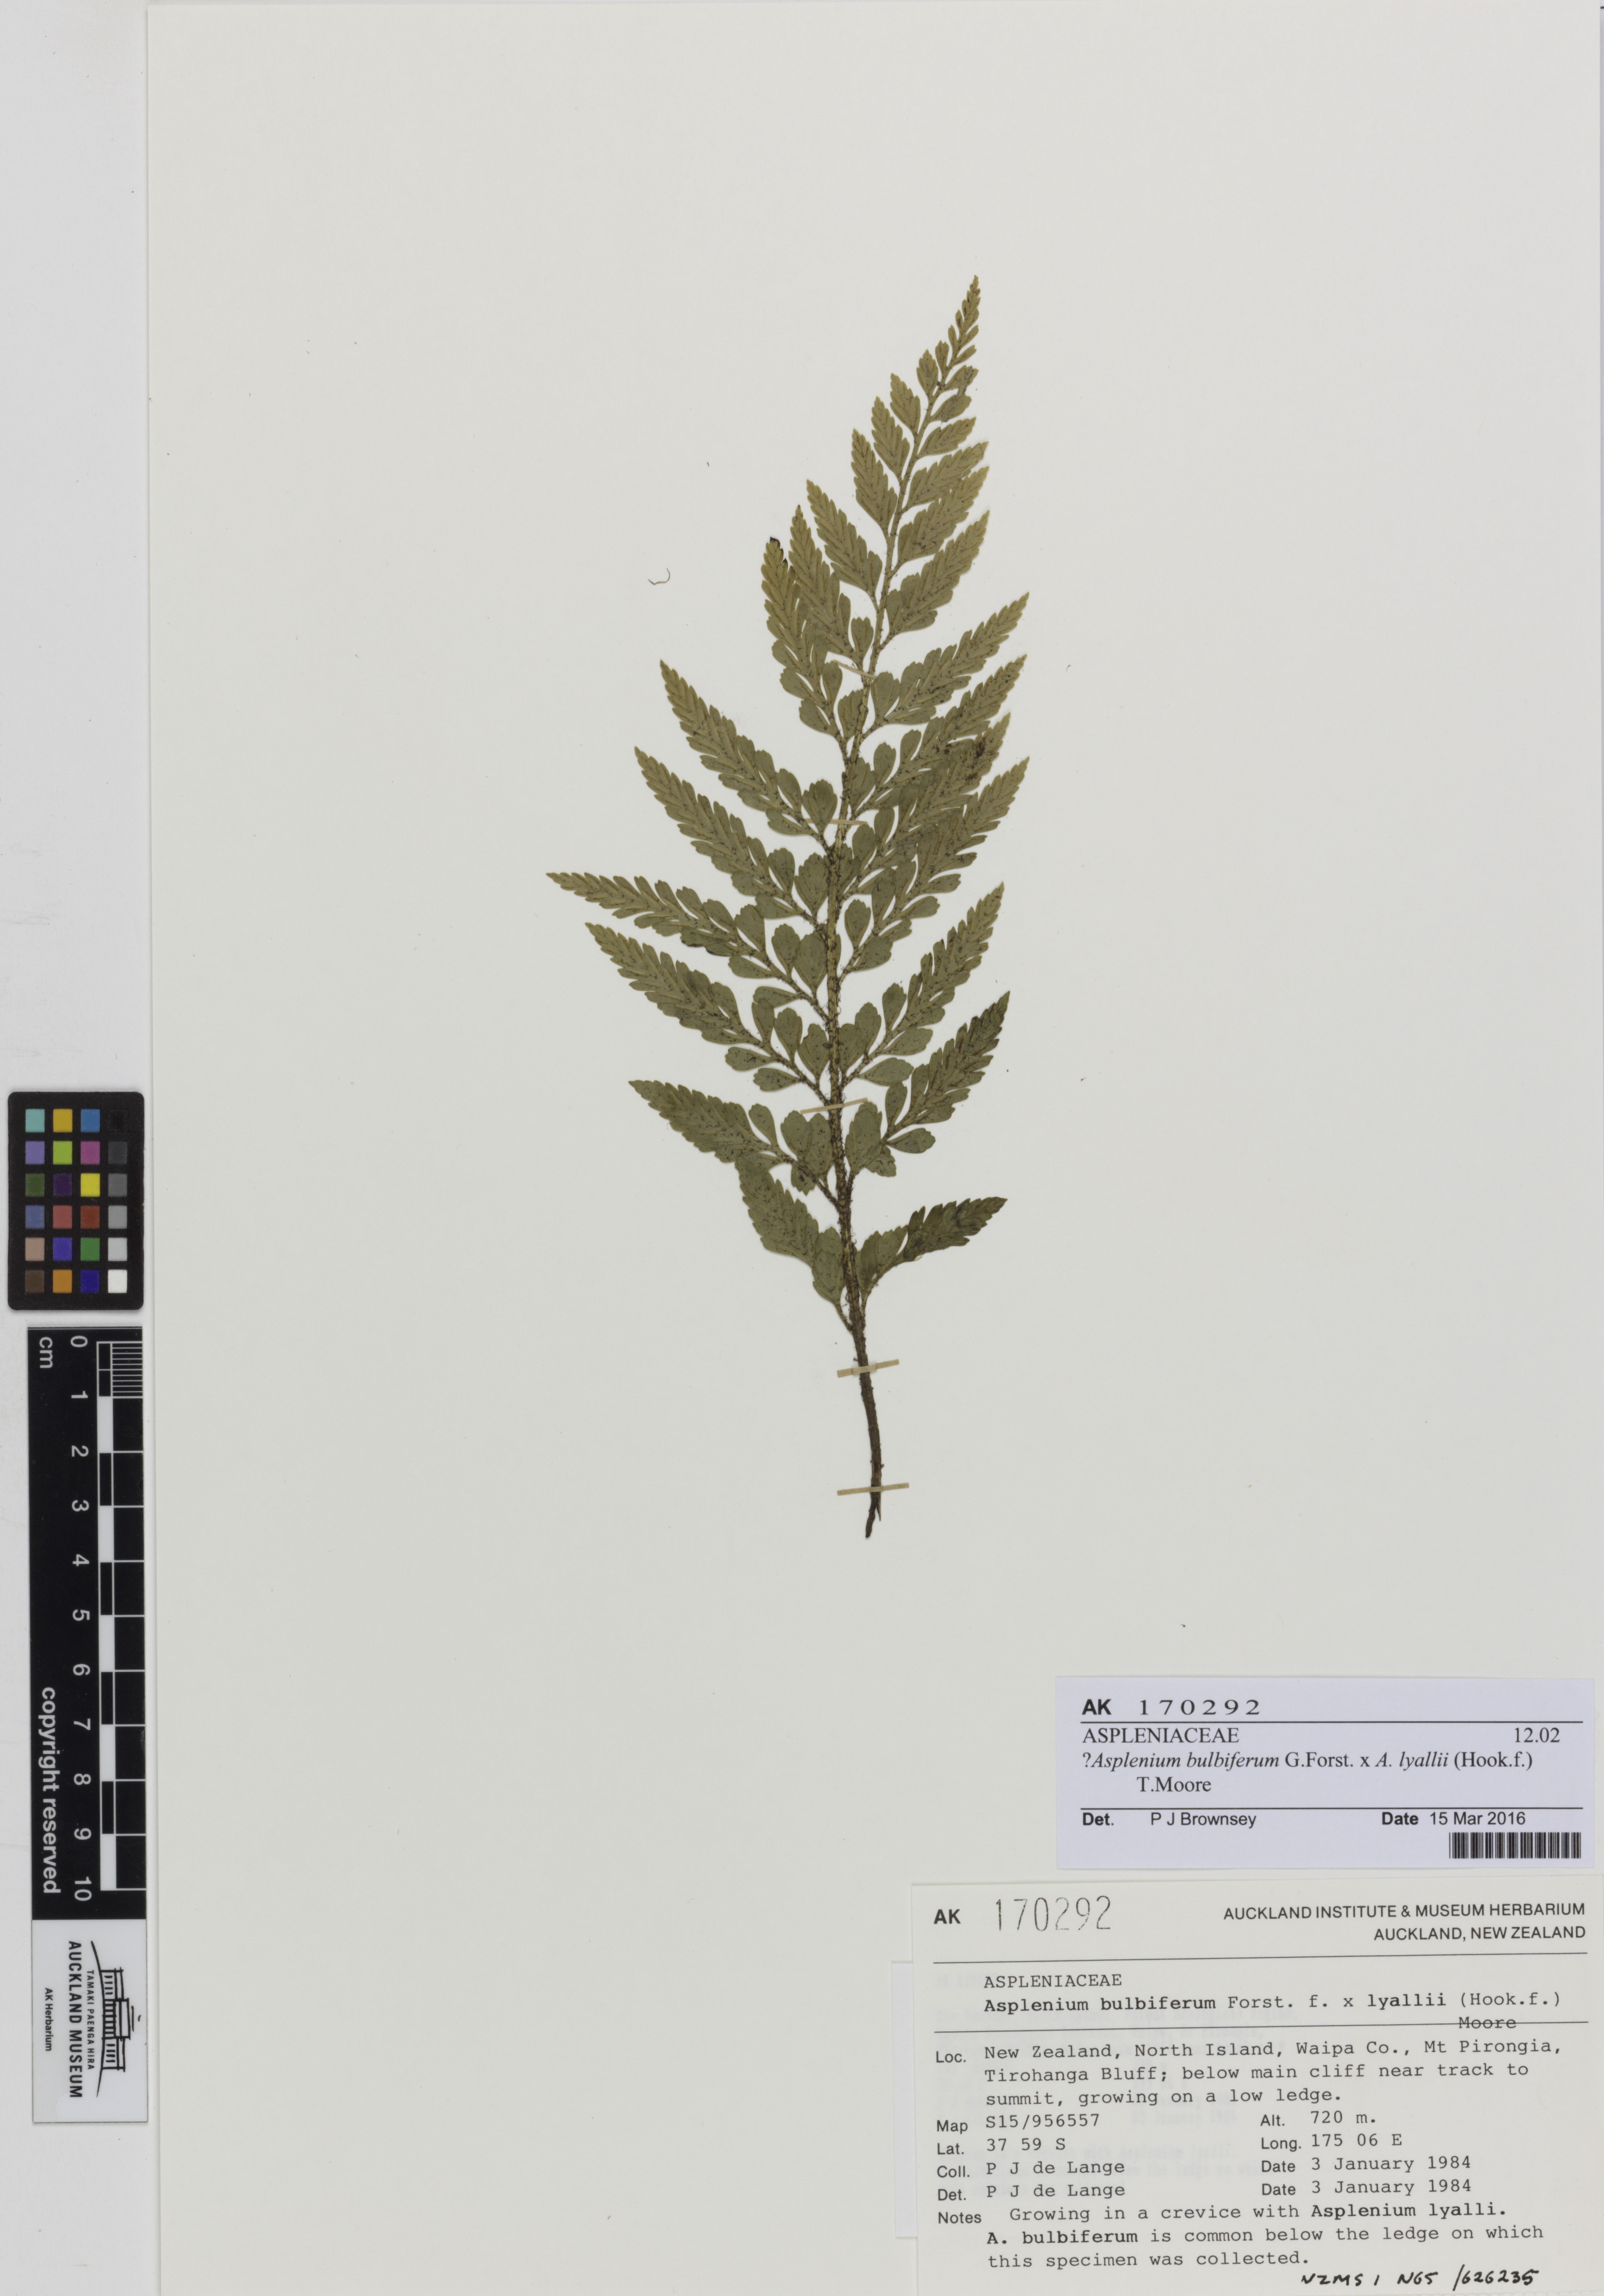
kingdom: Plantae
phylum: Tracheophyta
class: Polypodiopsida
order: Polypodiales
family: Aspleniaceae
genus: Asplenium
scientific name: Asplenium
